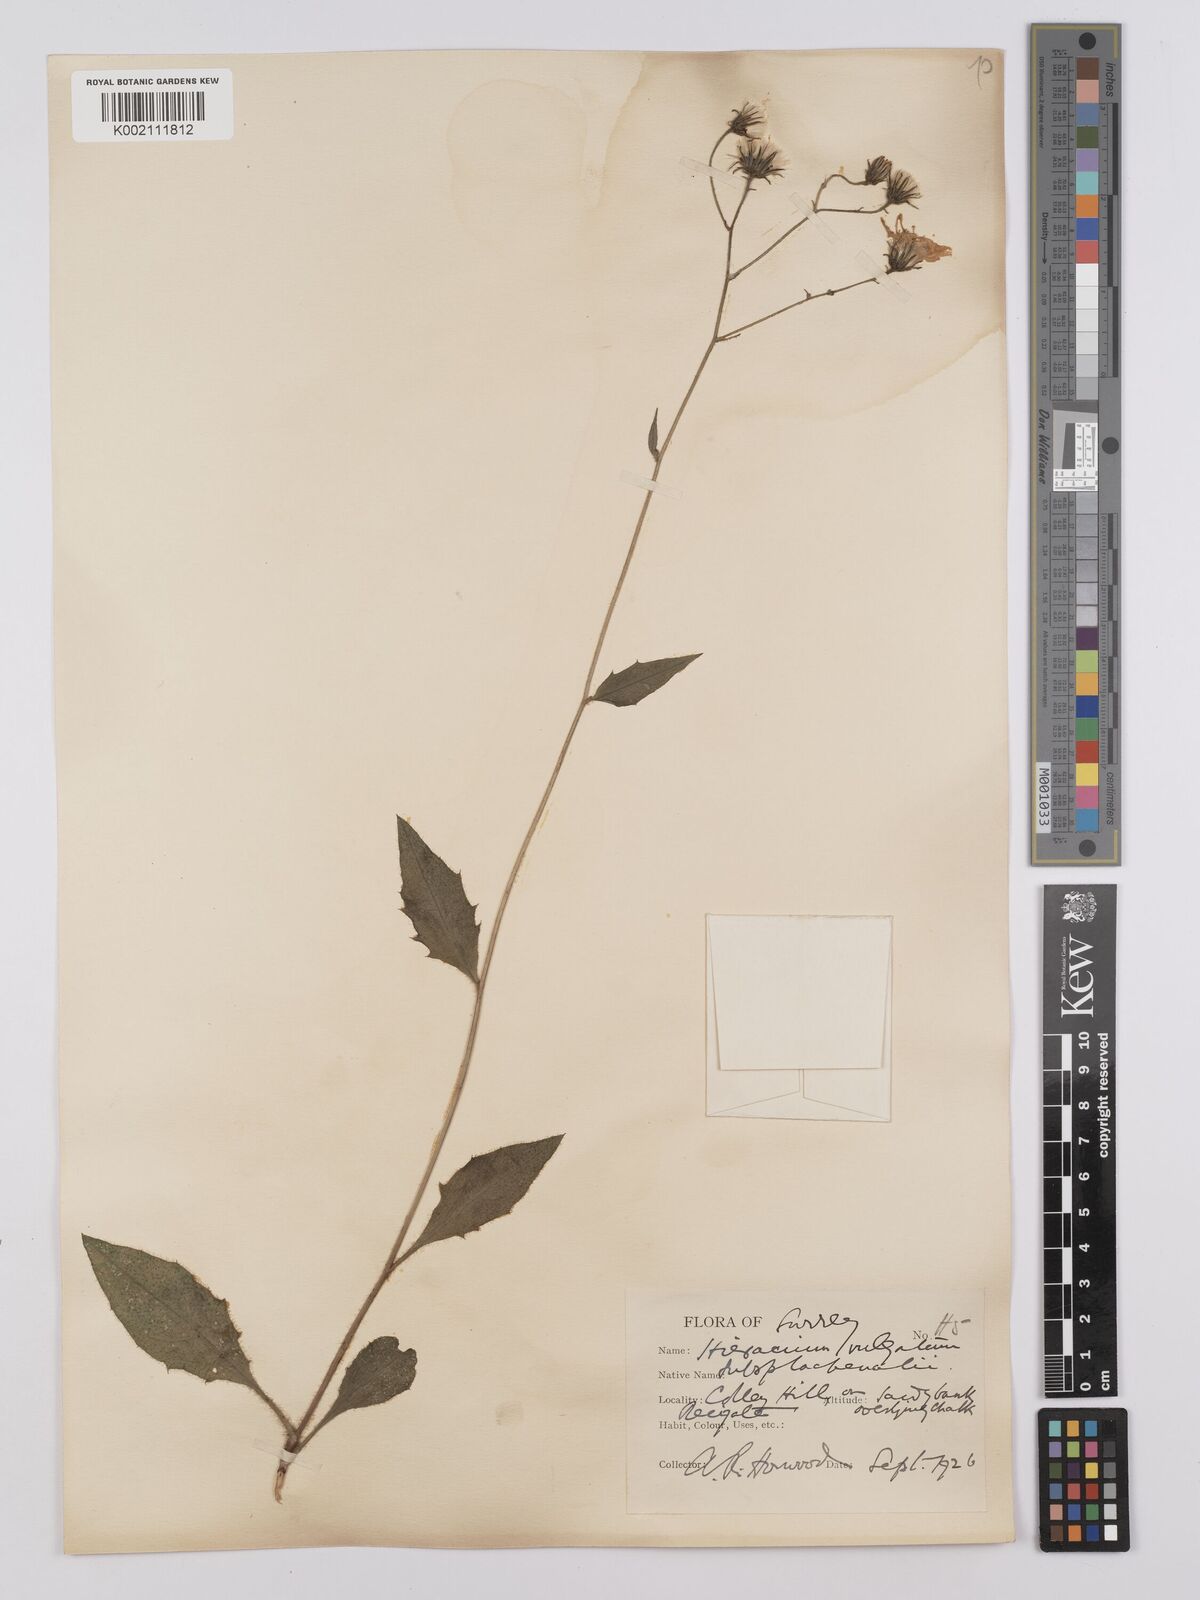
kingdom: Plantae
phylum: Tracheophyta
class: Magnoliopsida
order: Asterales
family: Asteraceae
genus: Hieracium
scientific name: Hieracium lachenalii
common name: Common hawkweed
